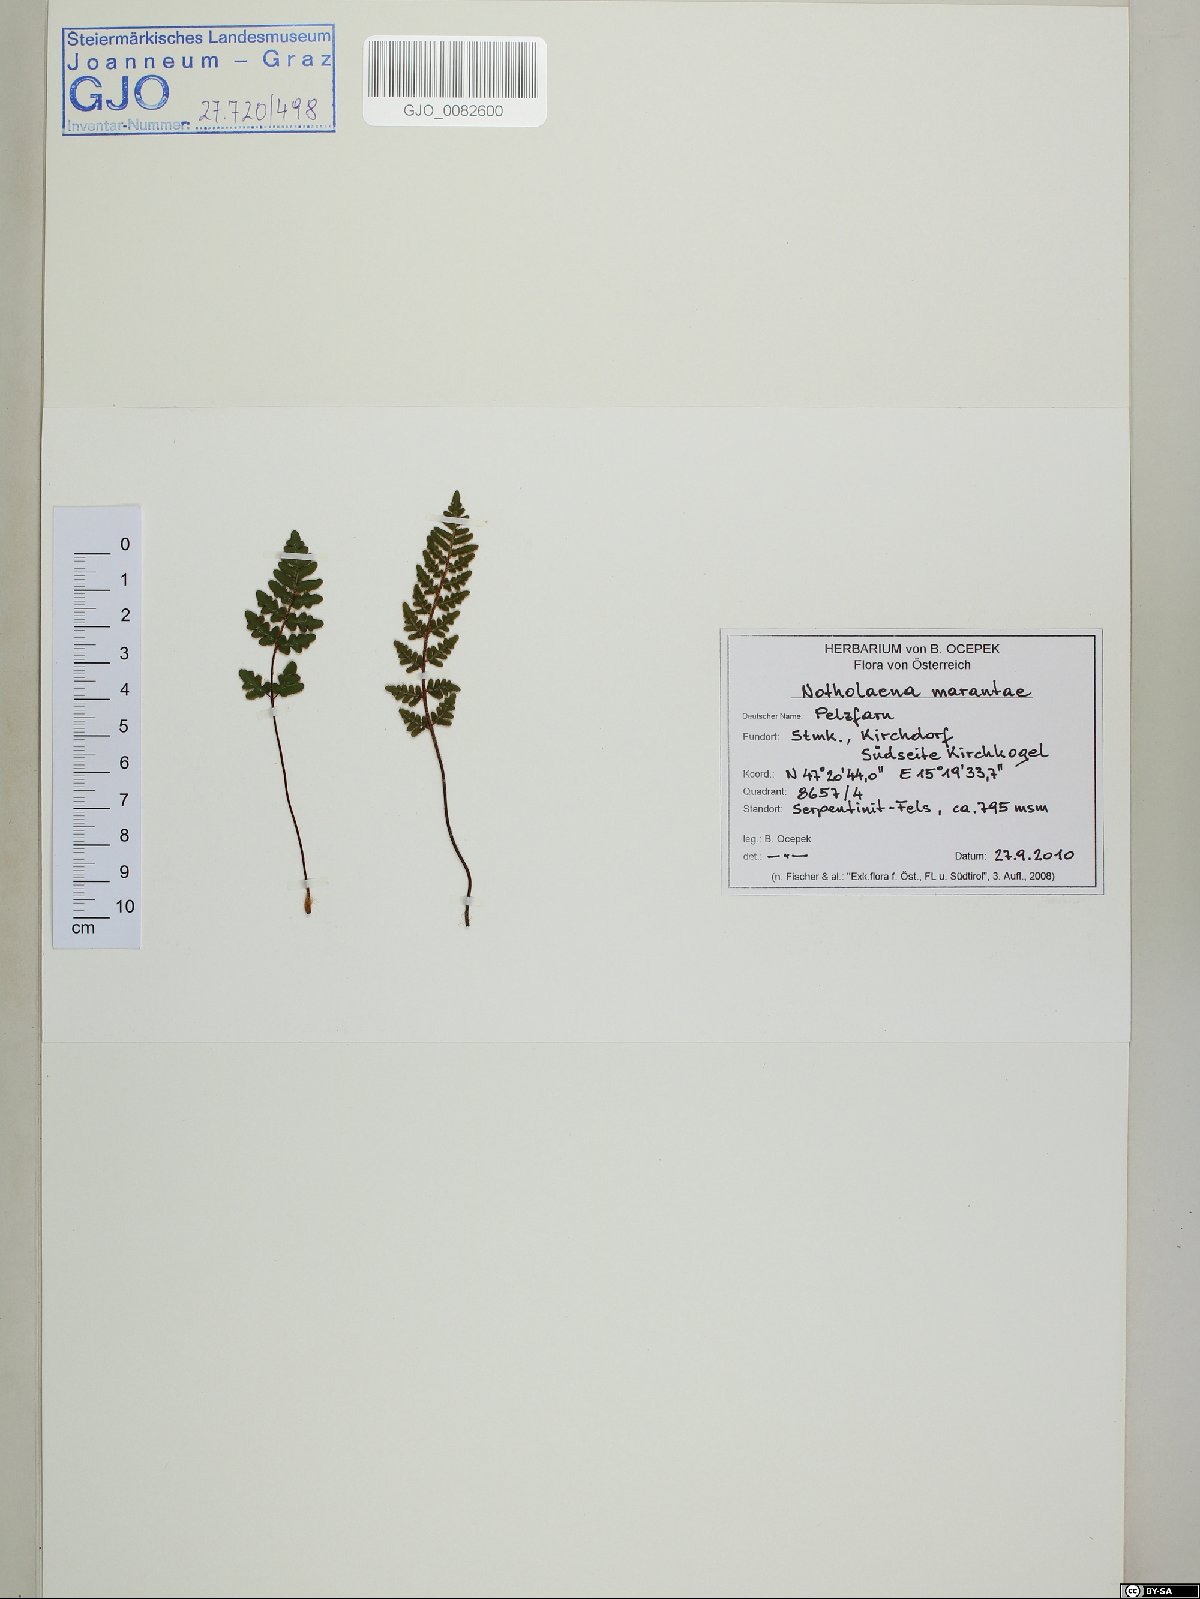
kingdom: Plantae
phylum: Tracheophyta
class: Polypodiopsida
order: Polypodiales
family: Pteridaceae
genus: Paragymnopteris
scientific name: Paragymnopteris marantae
